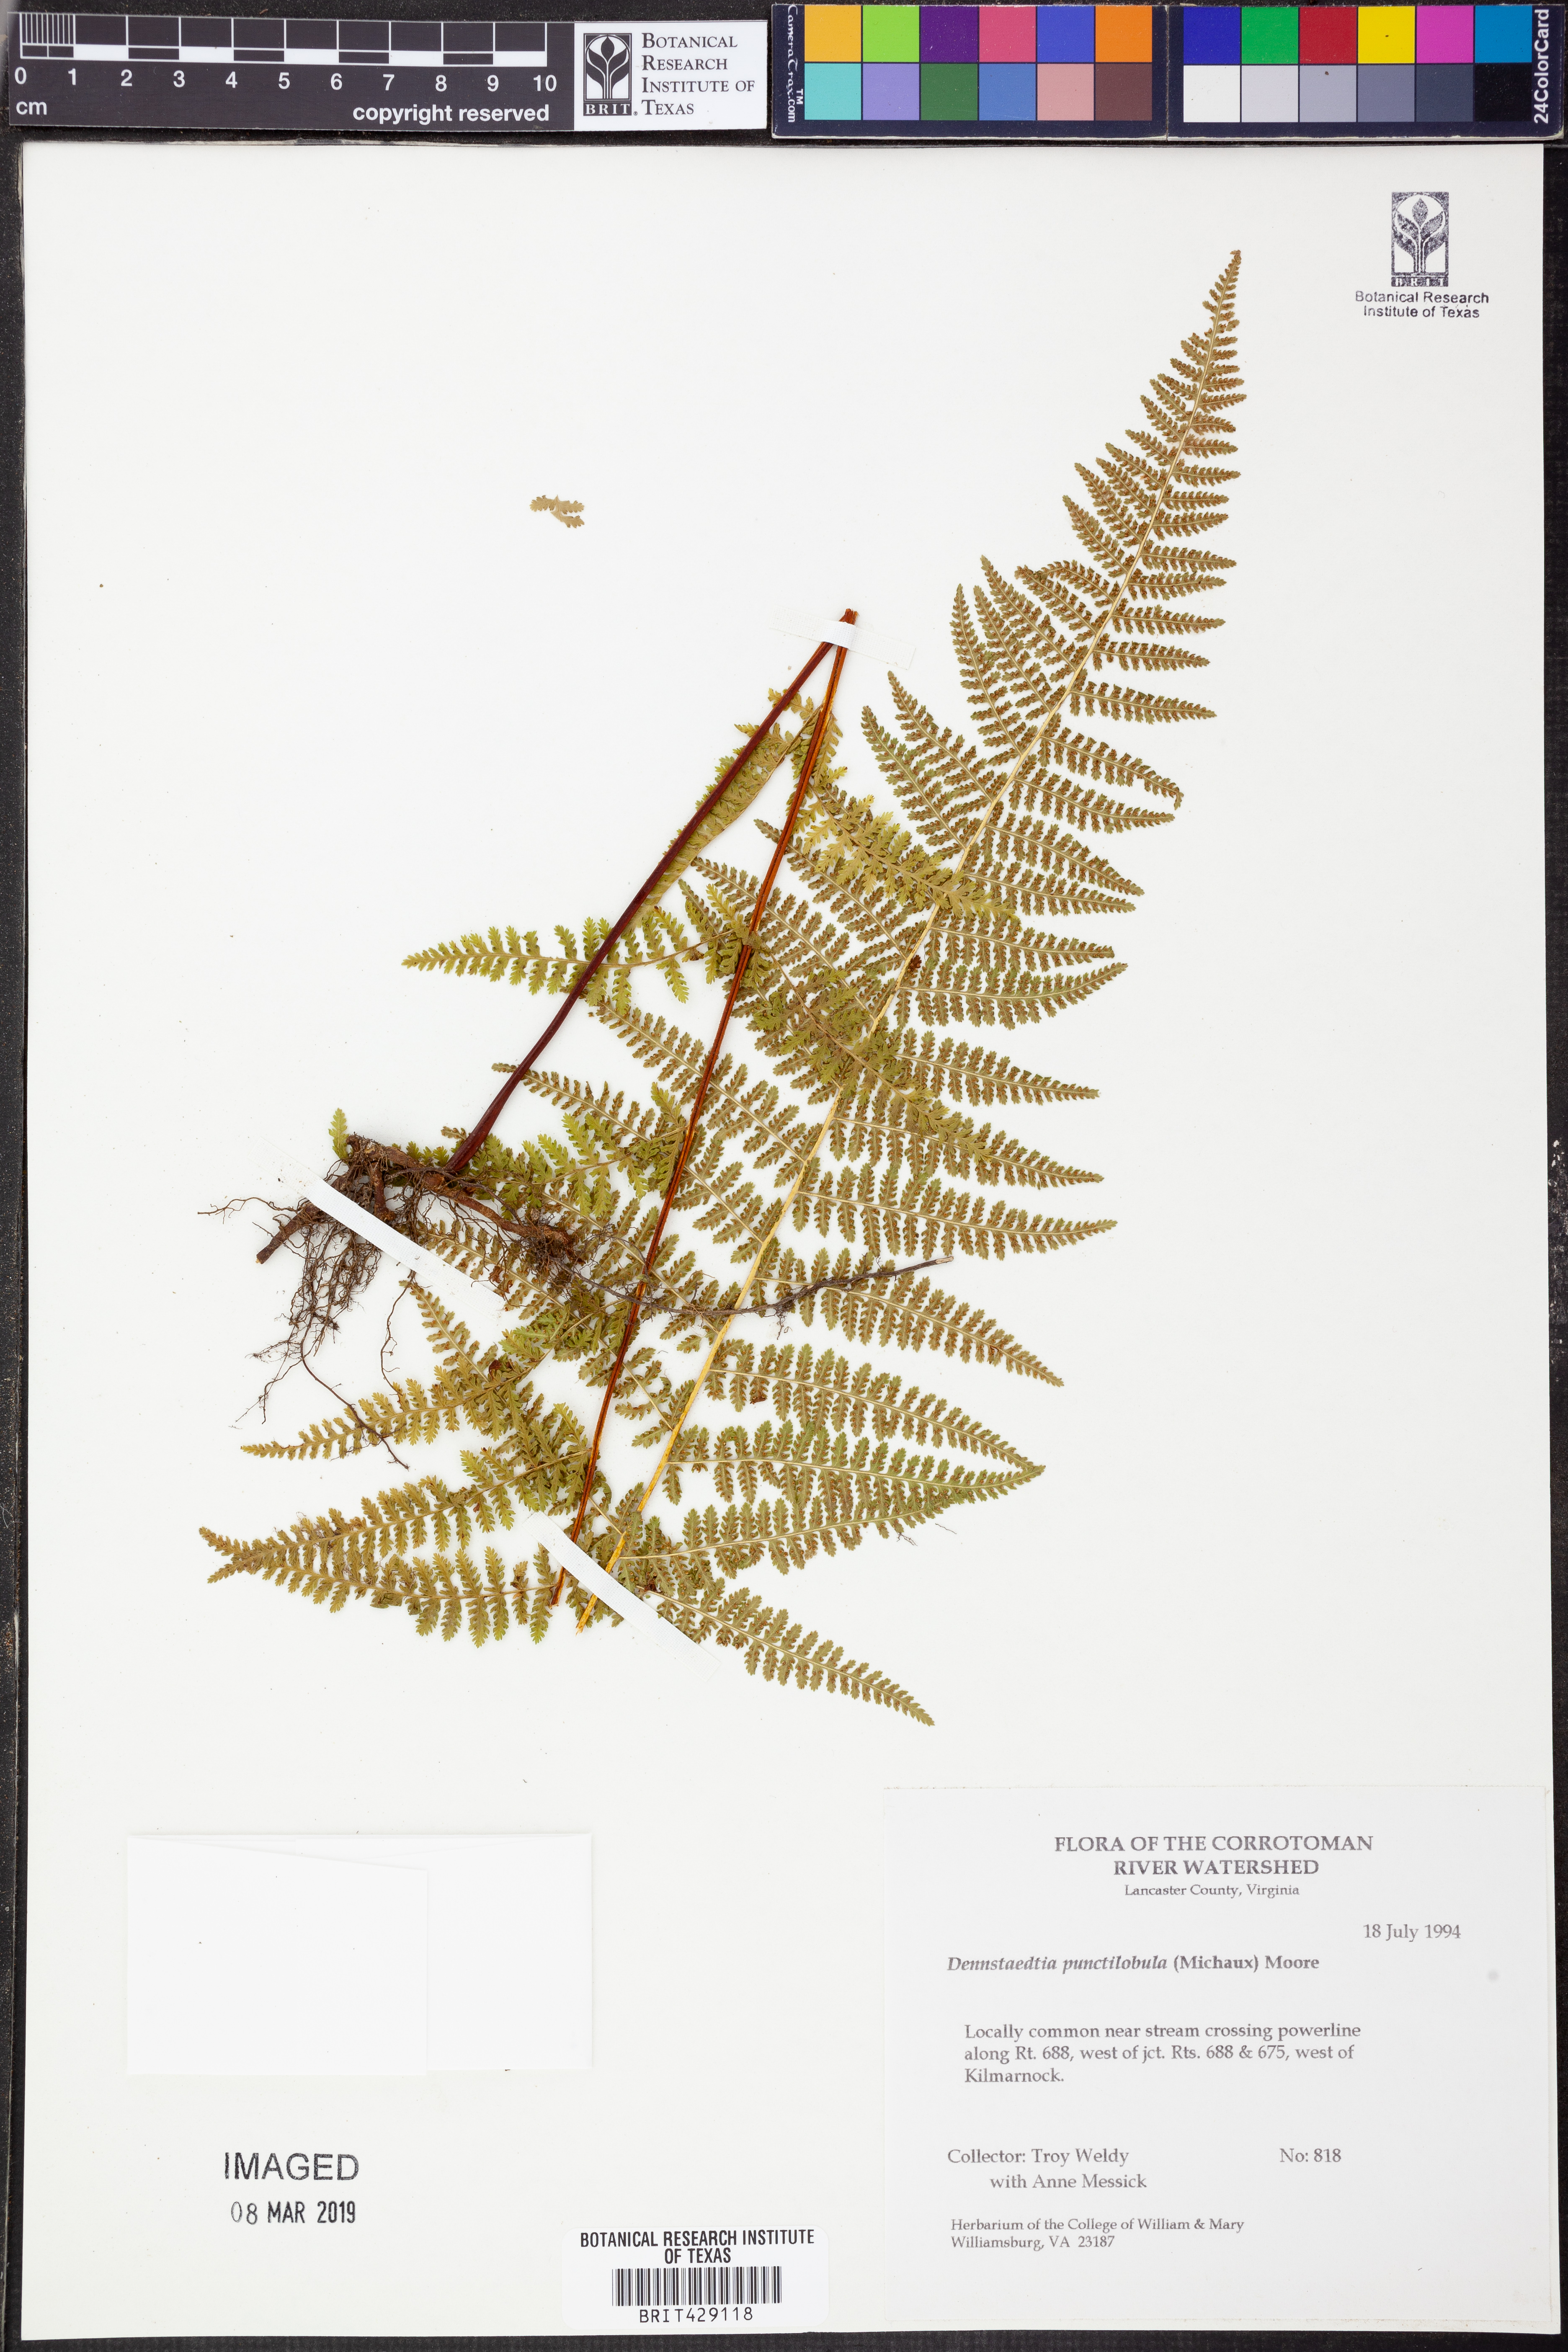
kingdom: Plantae
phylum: Tracheophyta
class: Polypodiopsida
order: Polypodiales
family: Dennstaedtiaceae
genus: Sitobolium
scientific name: Sitobolium punctilobum
